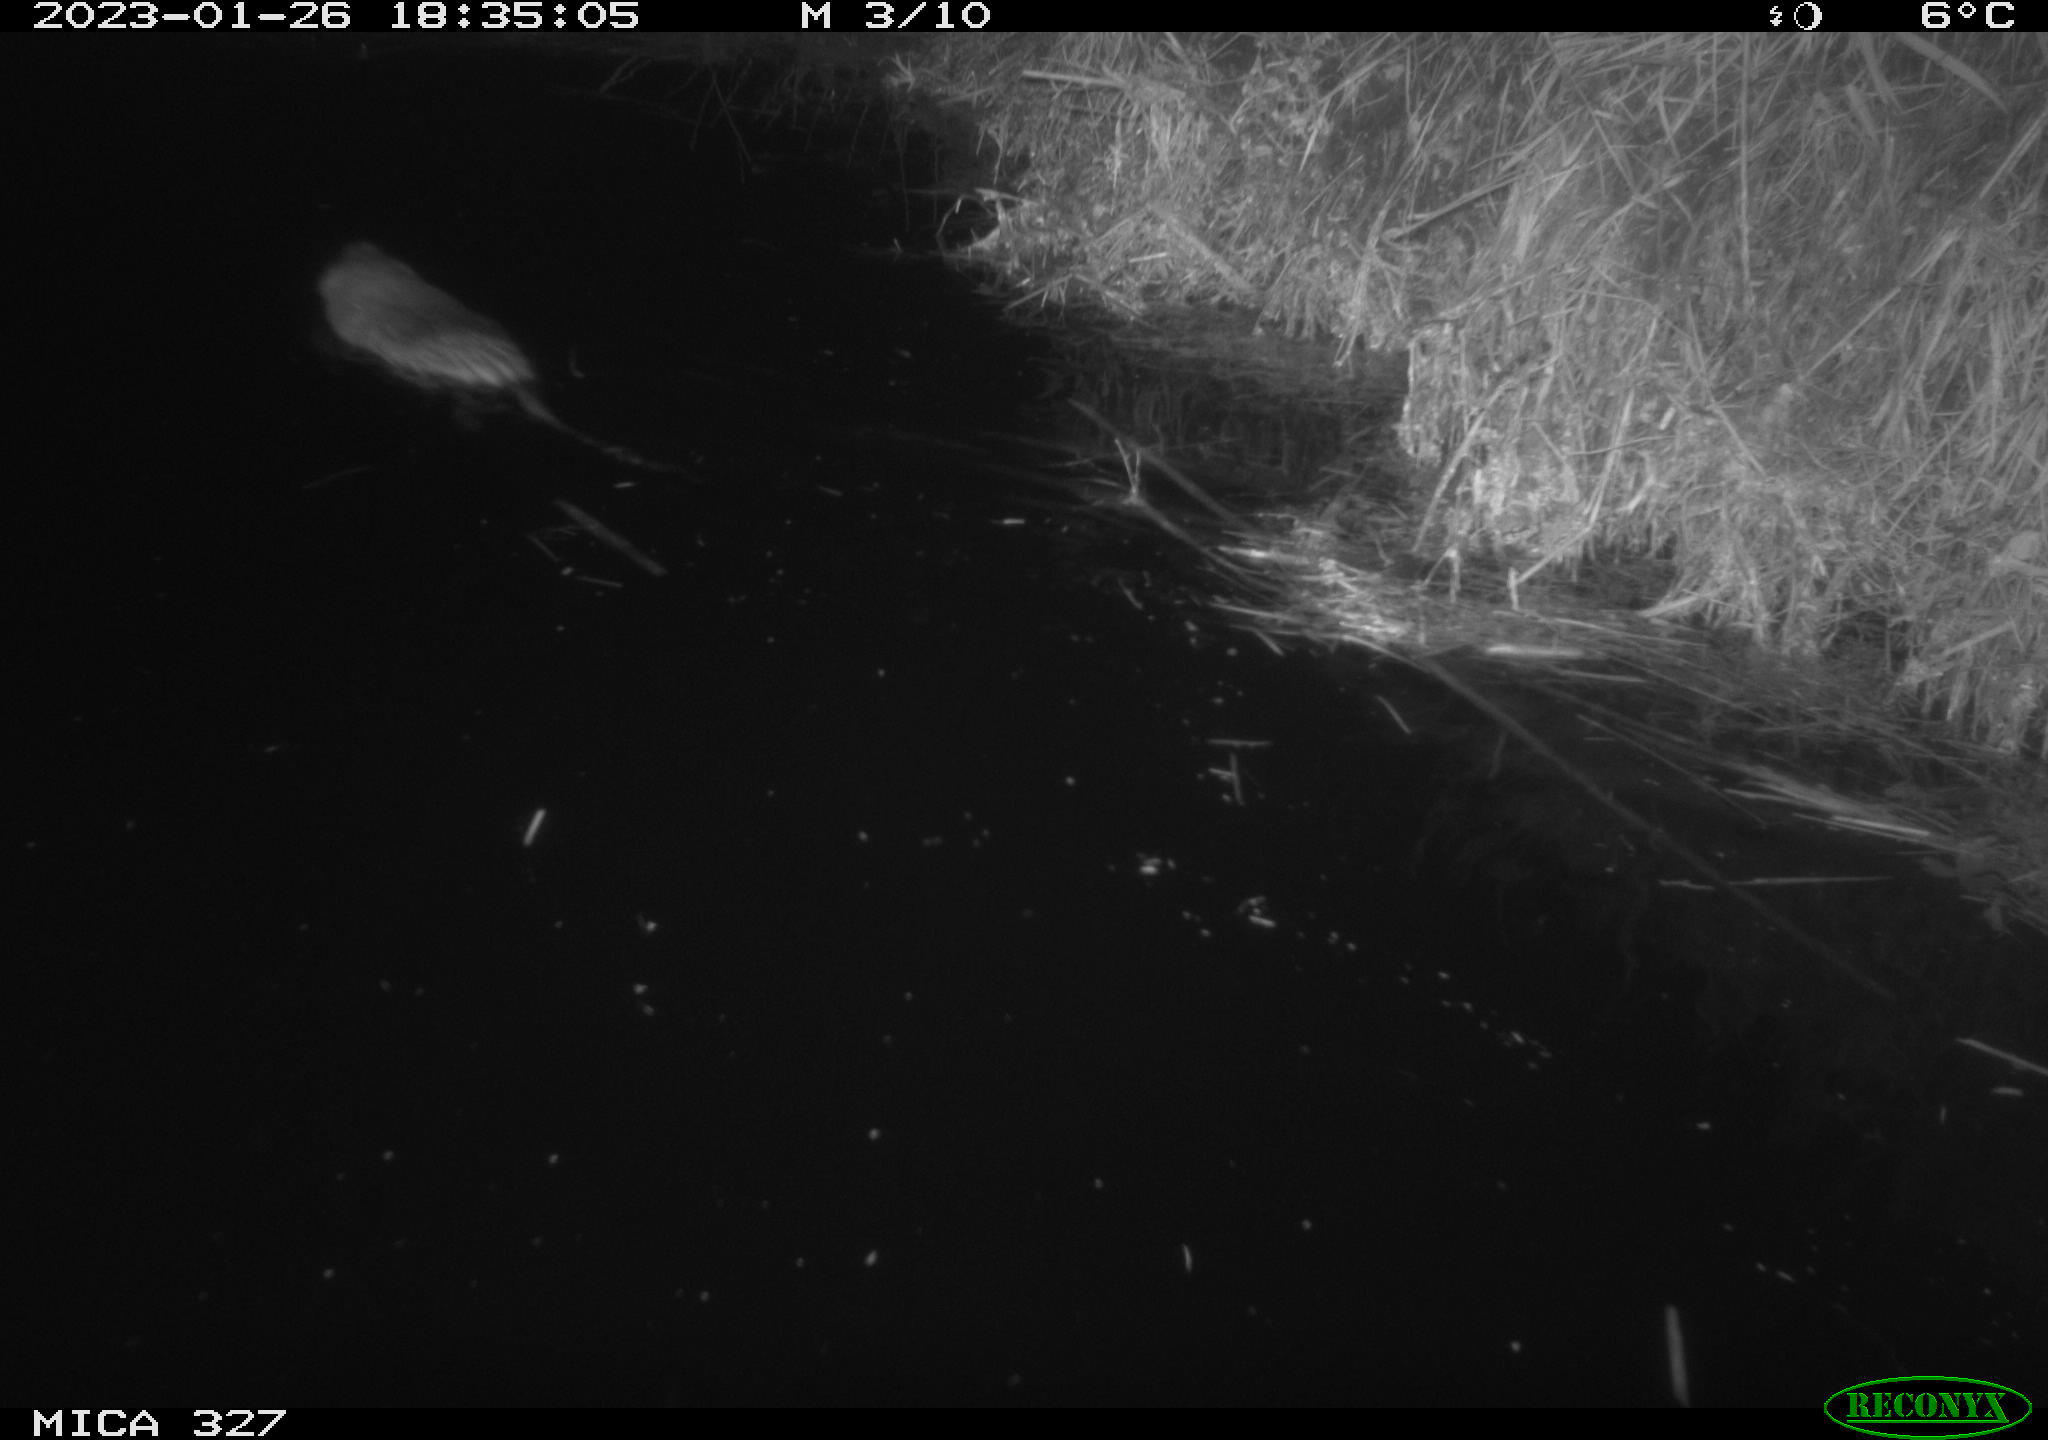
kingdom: Animalia
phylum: Chordata
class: Mammalia
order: Rodentia
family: Cricetidae
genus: Ondatra
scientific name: Ondatra zibethicus
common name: Muskrat
